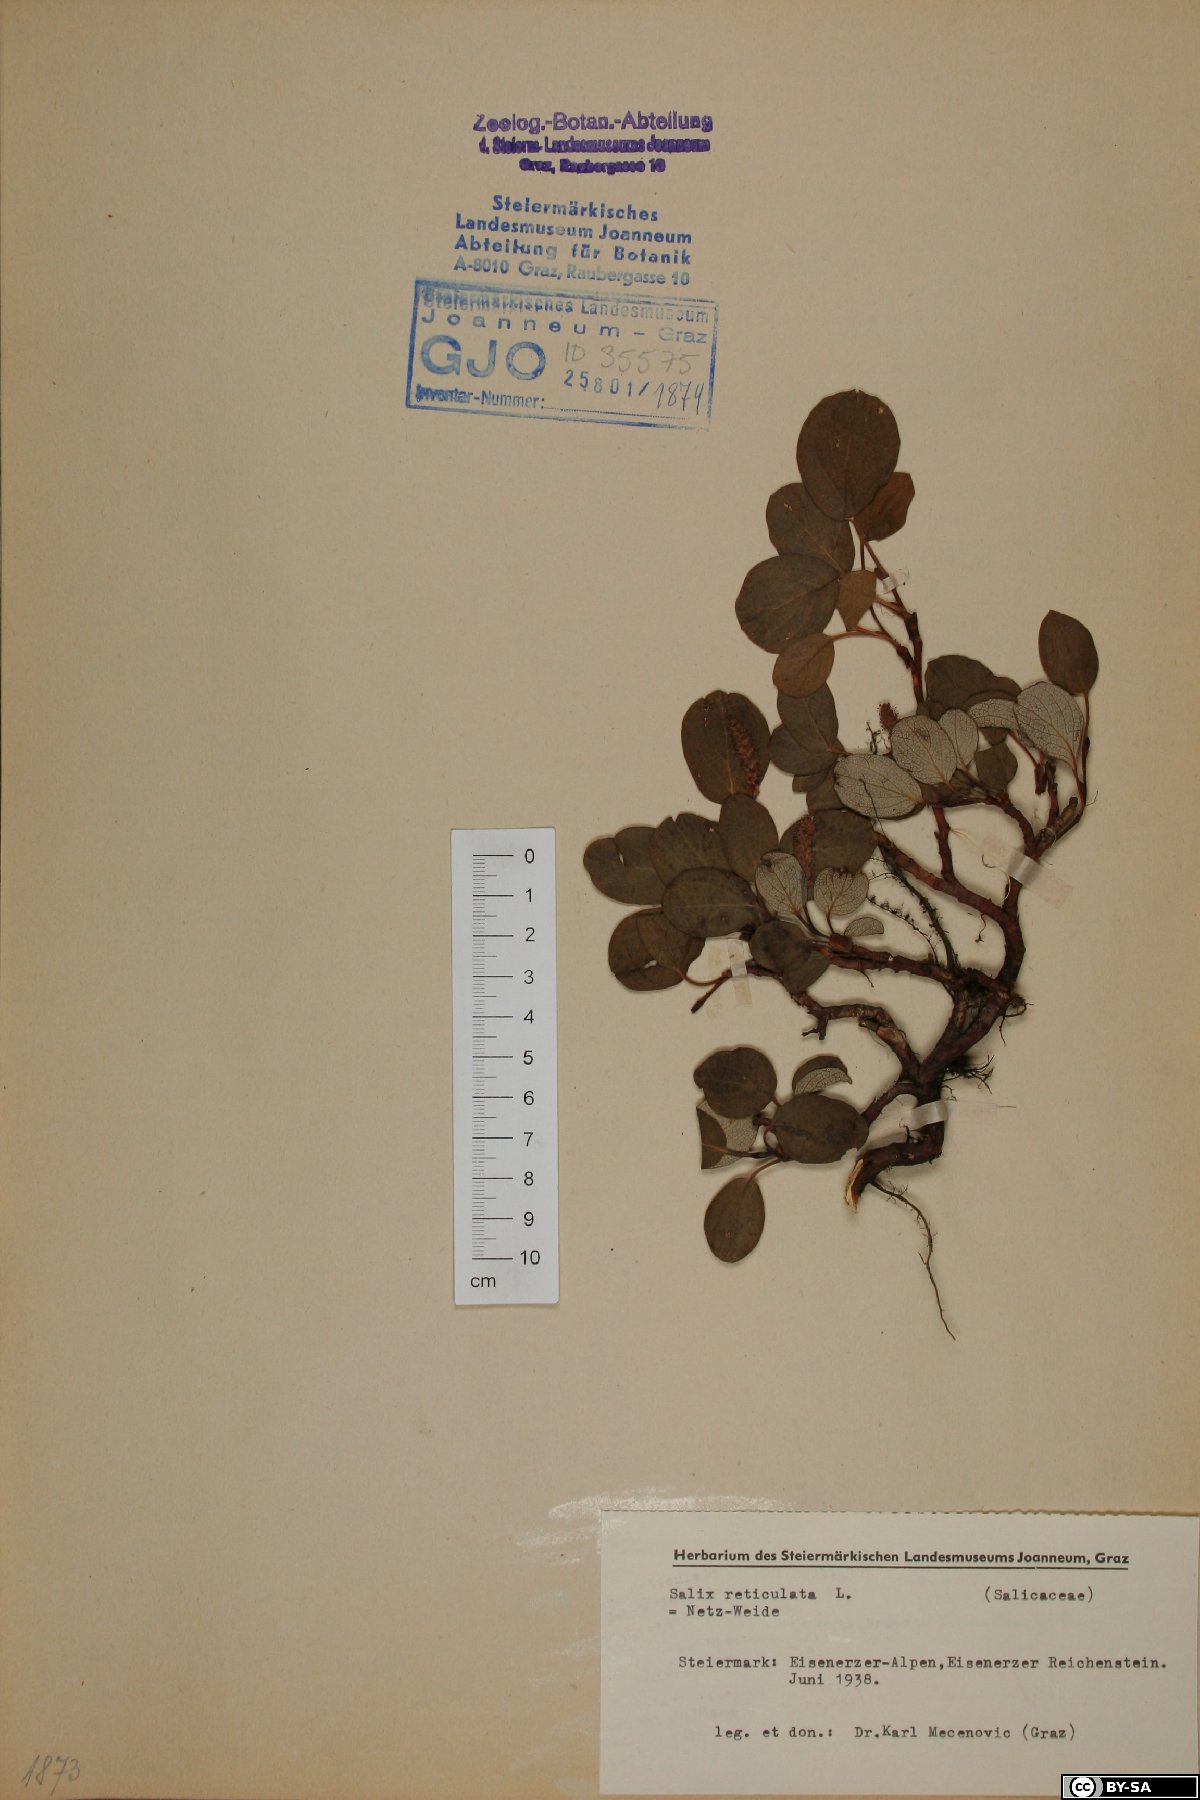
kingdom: Plantae
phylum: Tracheophyta
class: Magnoliopsida
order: Malpighiales
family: Salicaceae
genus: Salix
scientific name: Salix reticulata
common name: Net-leaved willow
